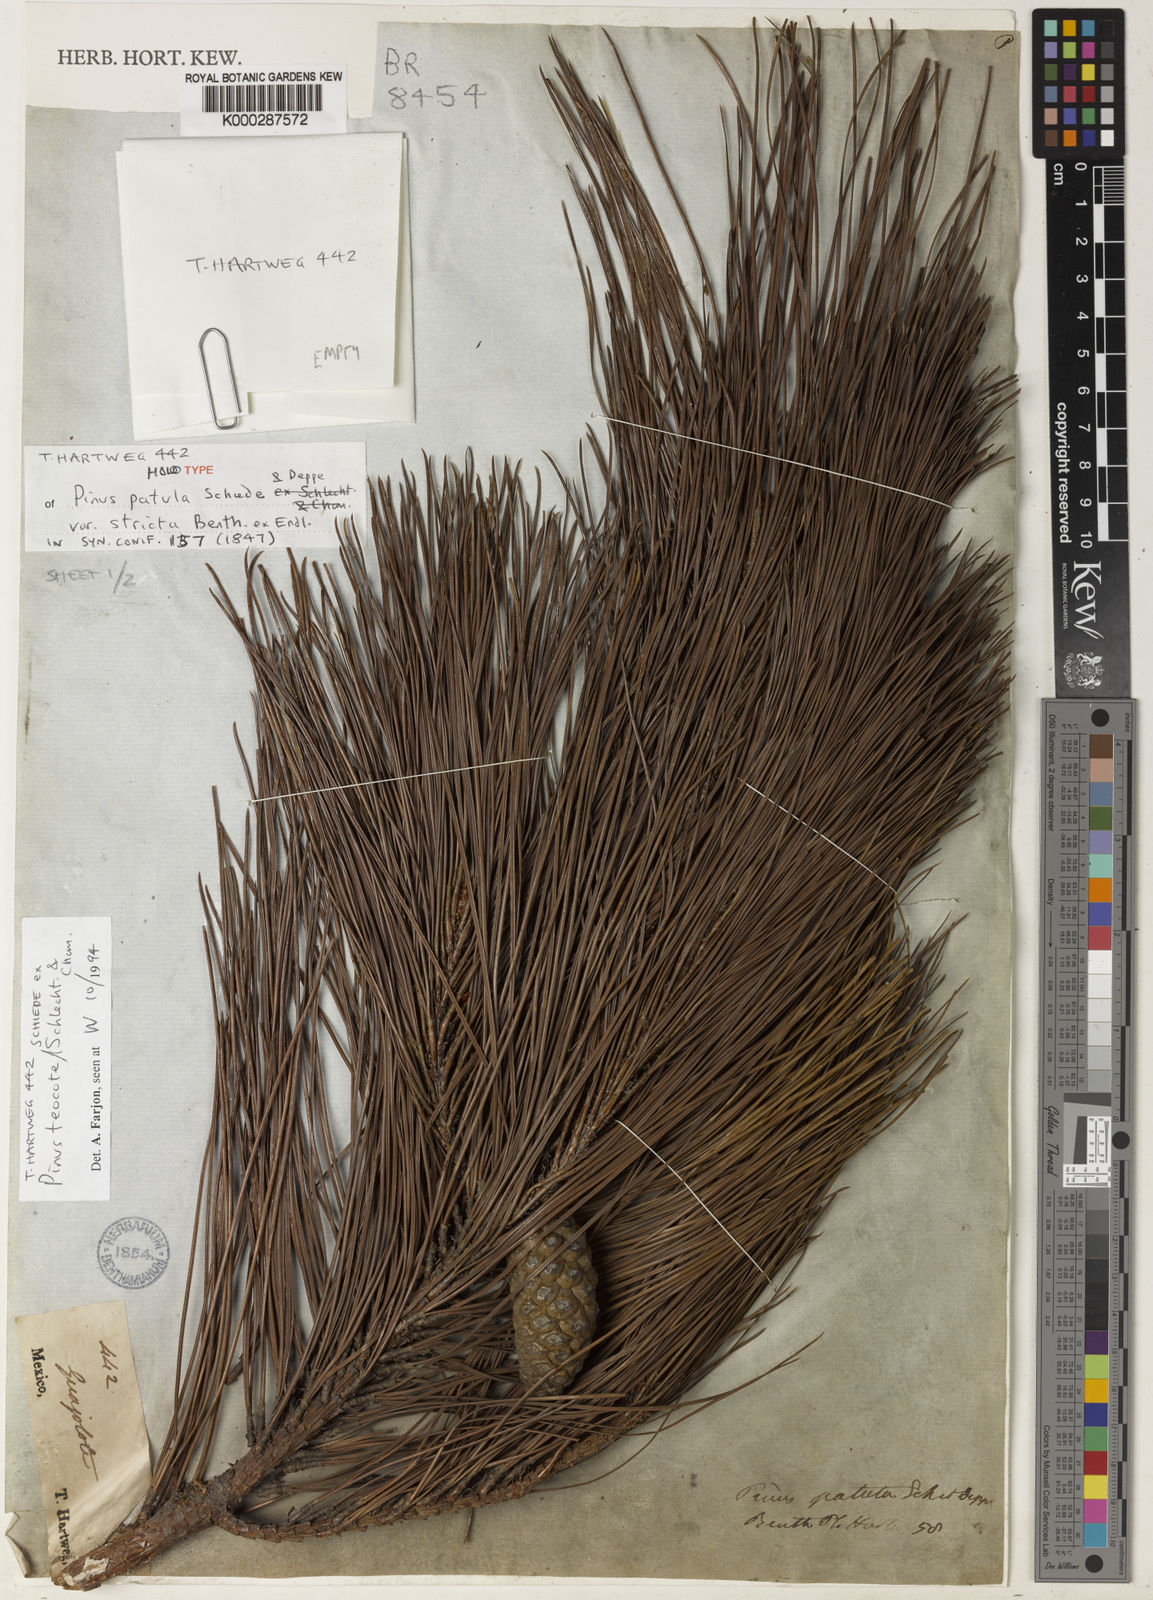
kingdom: Plantae
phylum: Tracheophyta
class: Pinopsida
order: Pinales
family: Pinaceae
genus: Pinus
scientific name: Pinus teocote
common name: Aztec pine
